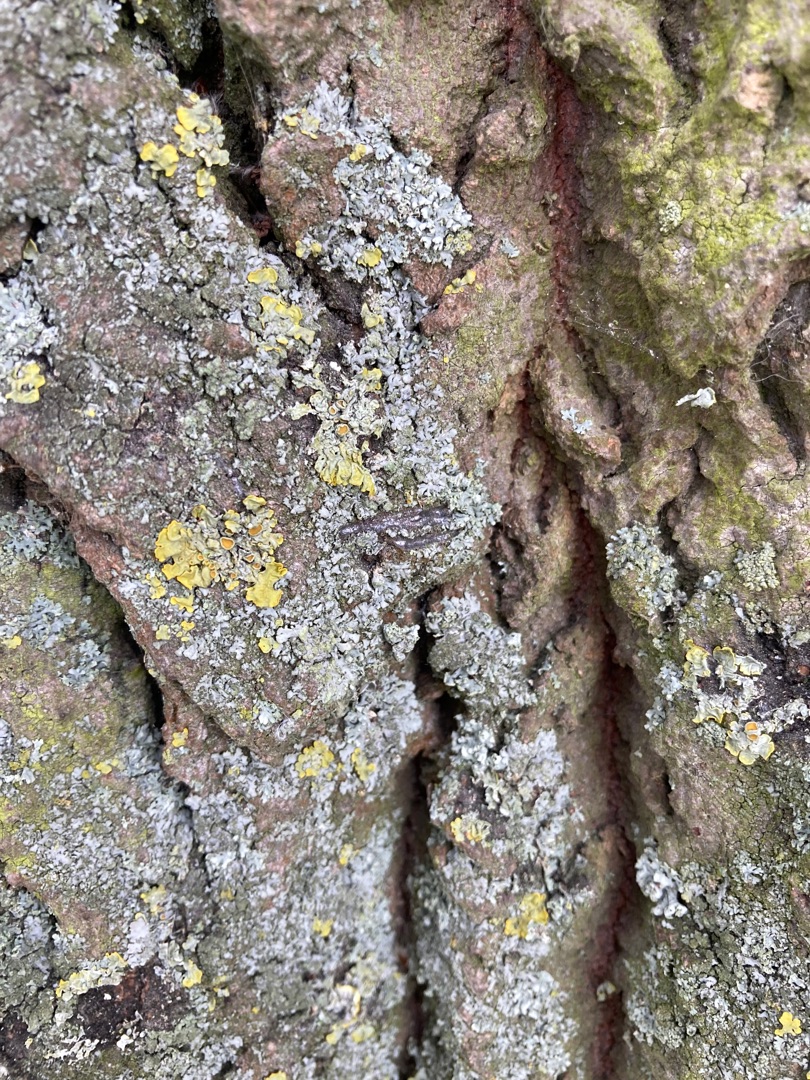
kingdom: Fungi
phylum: Ascomycota
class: Lecanoromycetes
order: Teloschistales
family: Teloschistaceae
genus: Xanthoria
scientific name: Xanthoria parietina
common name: Almindelig væggelav
